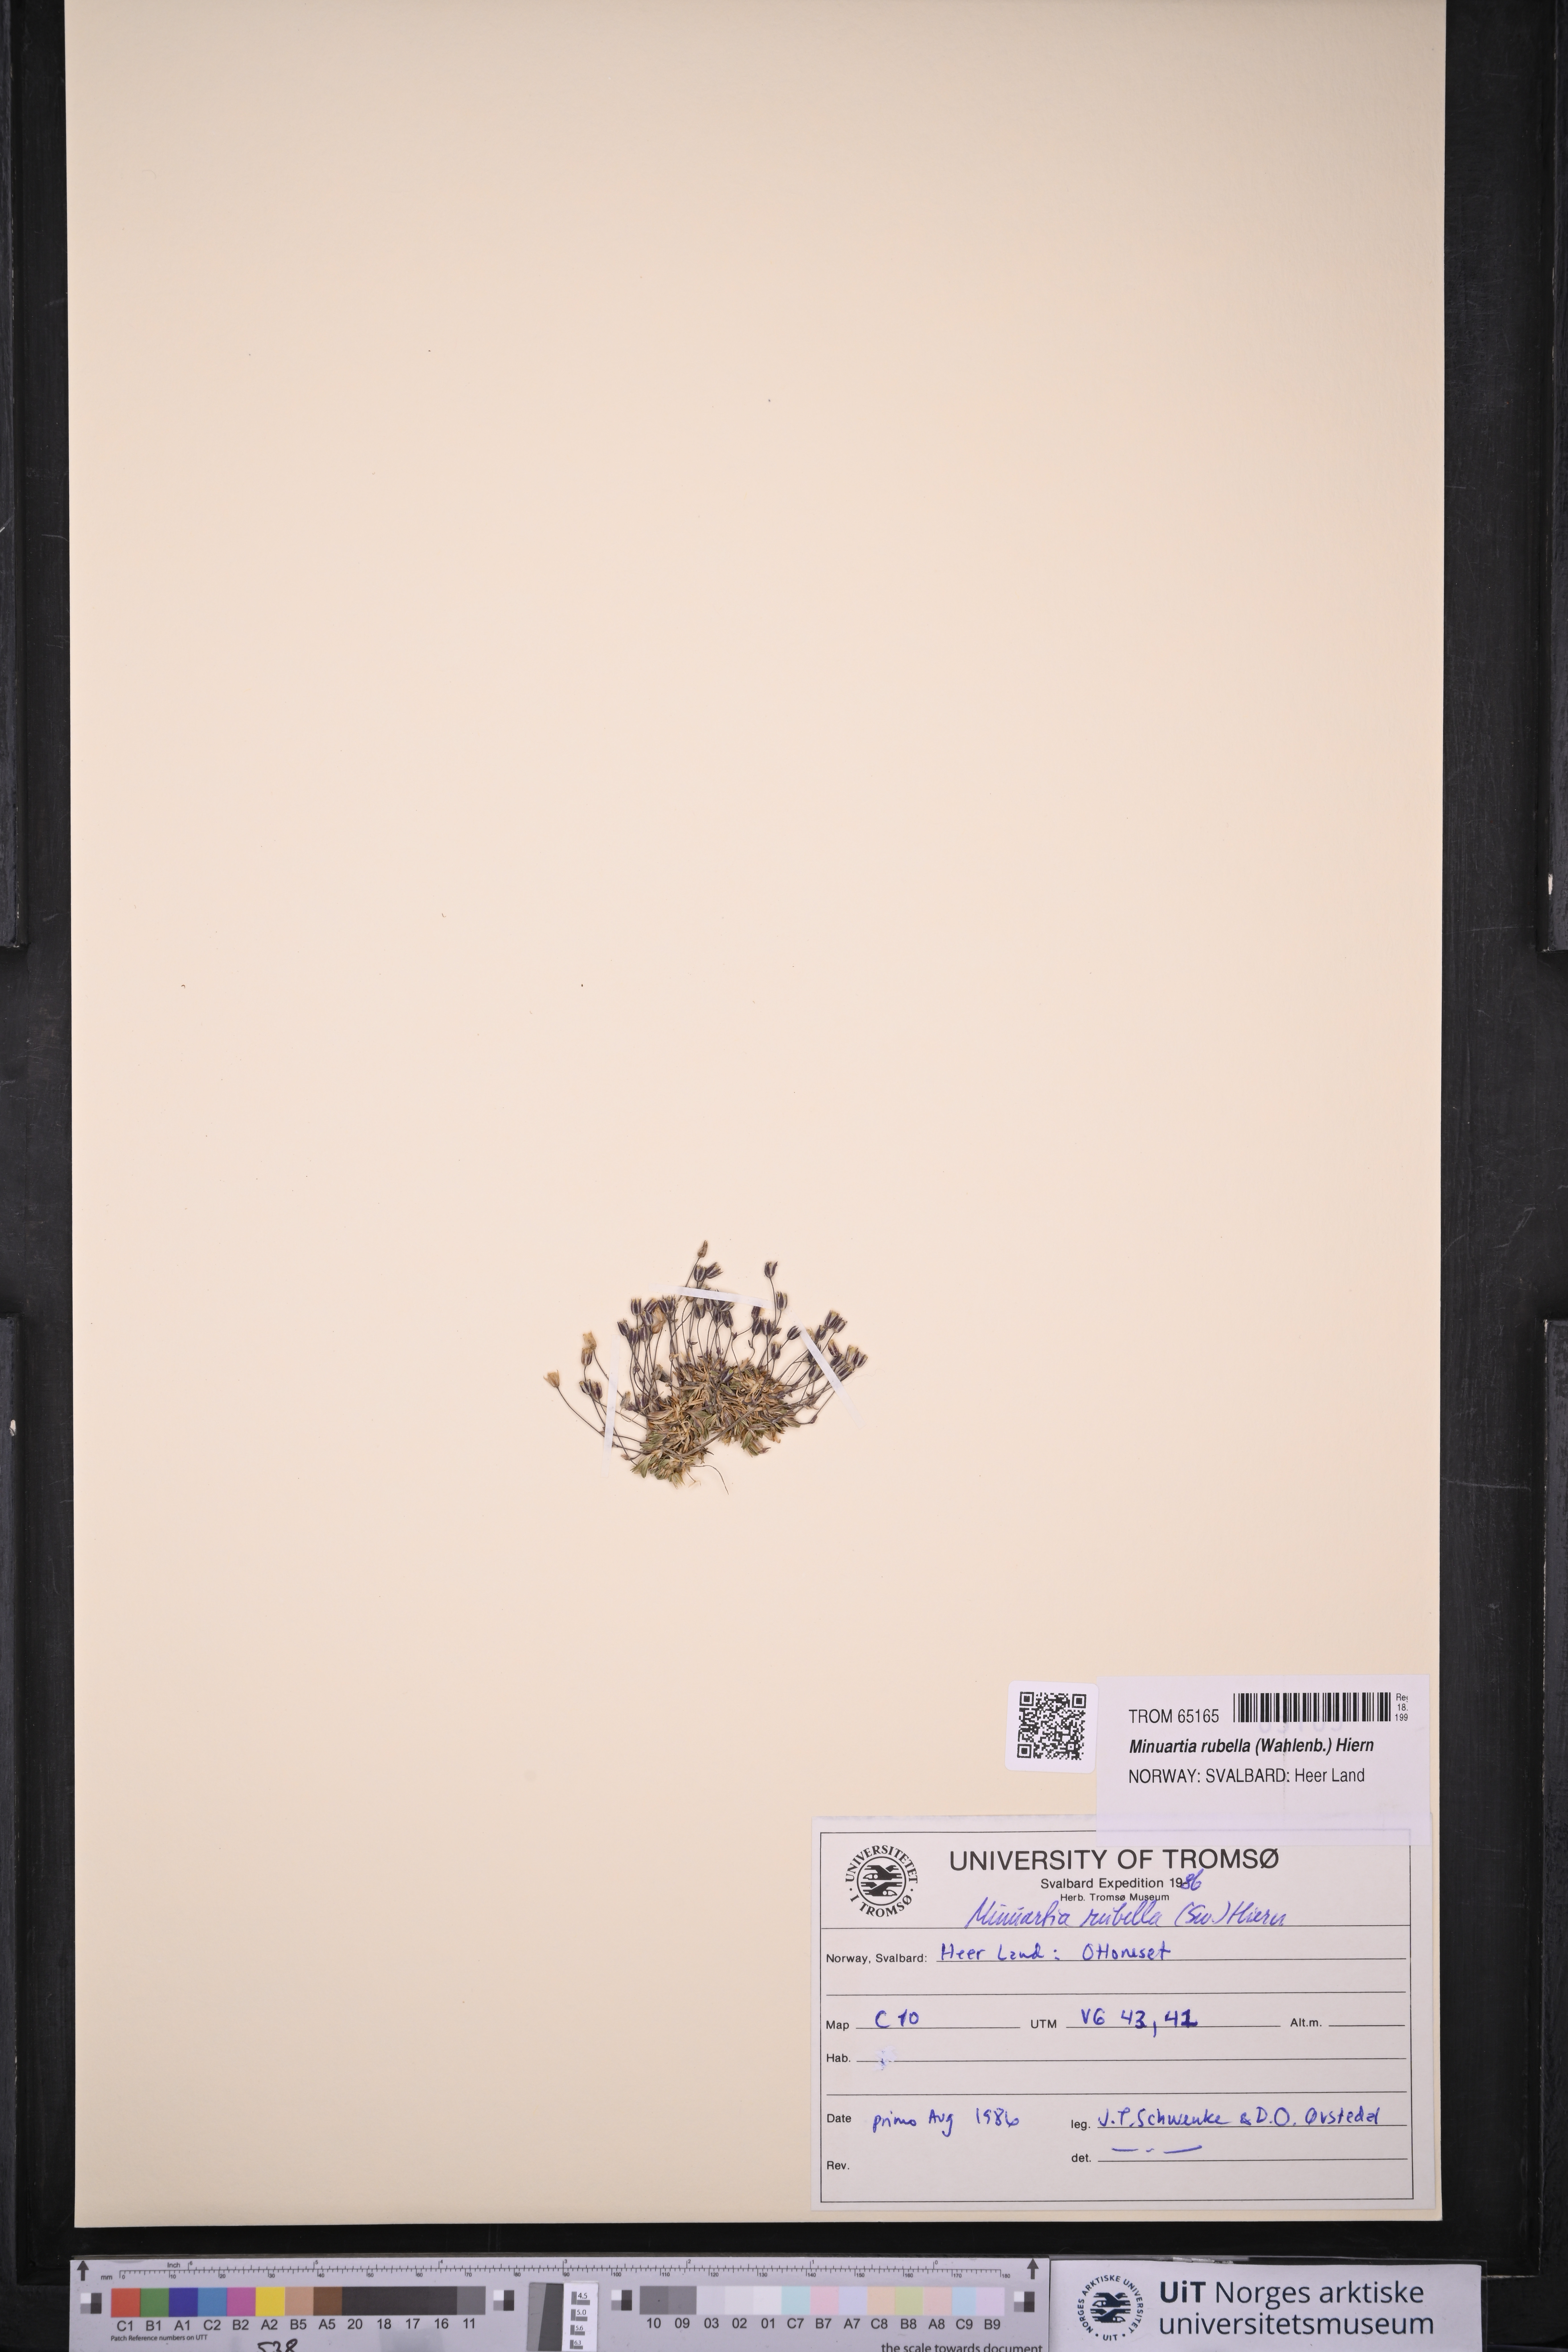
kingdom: Plantae
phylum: Tracheophyta
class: Magnoliopsida
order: Caryophyllales
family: Caryophyllaceae
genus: Sabulina
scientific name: Sabulina rubella
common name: Beautiful sandwort
